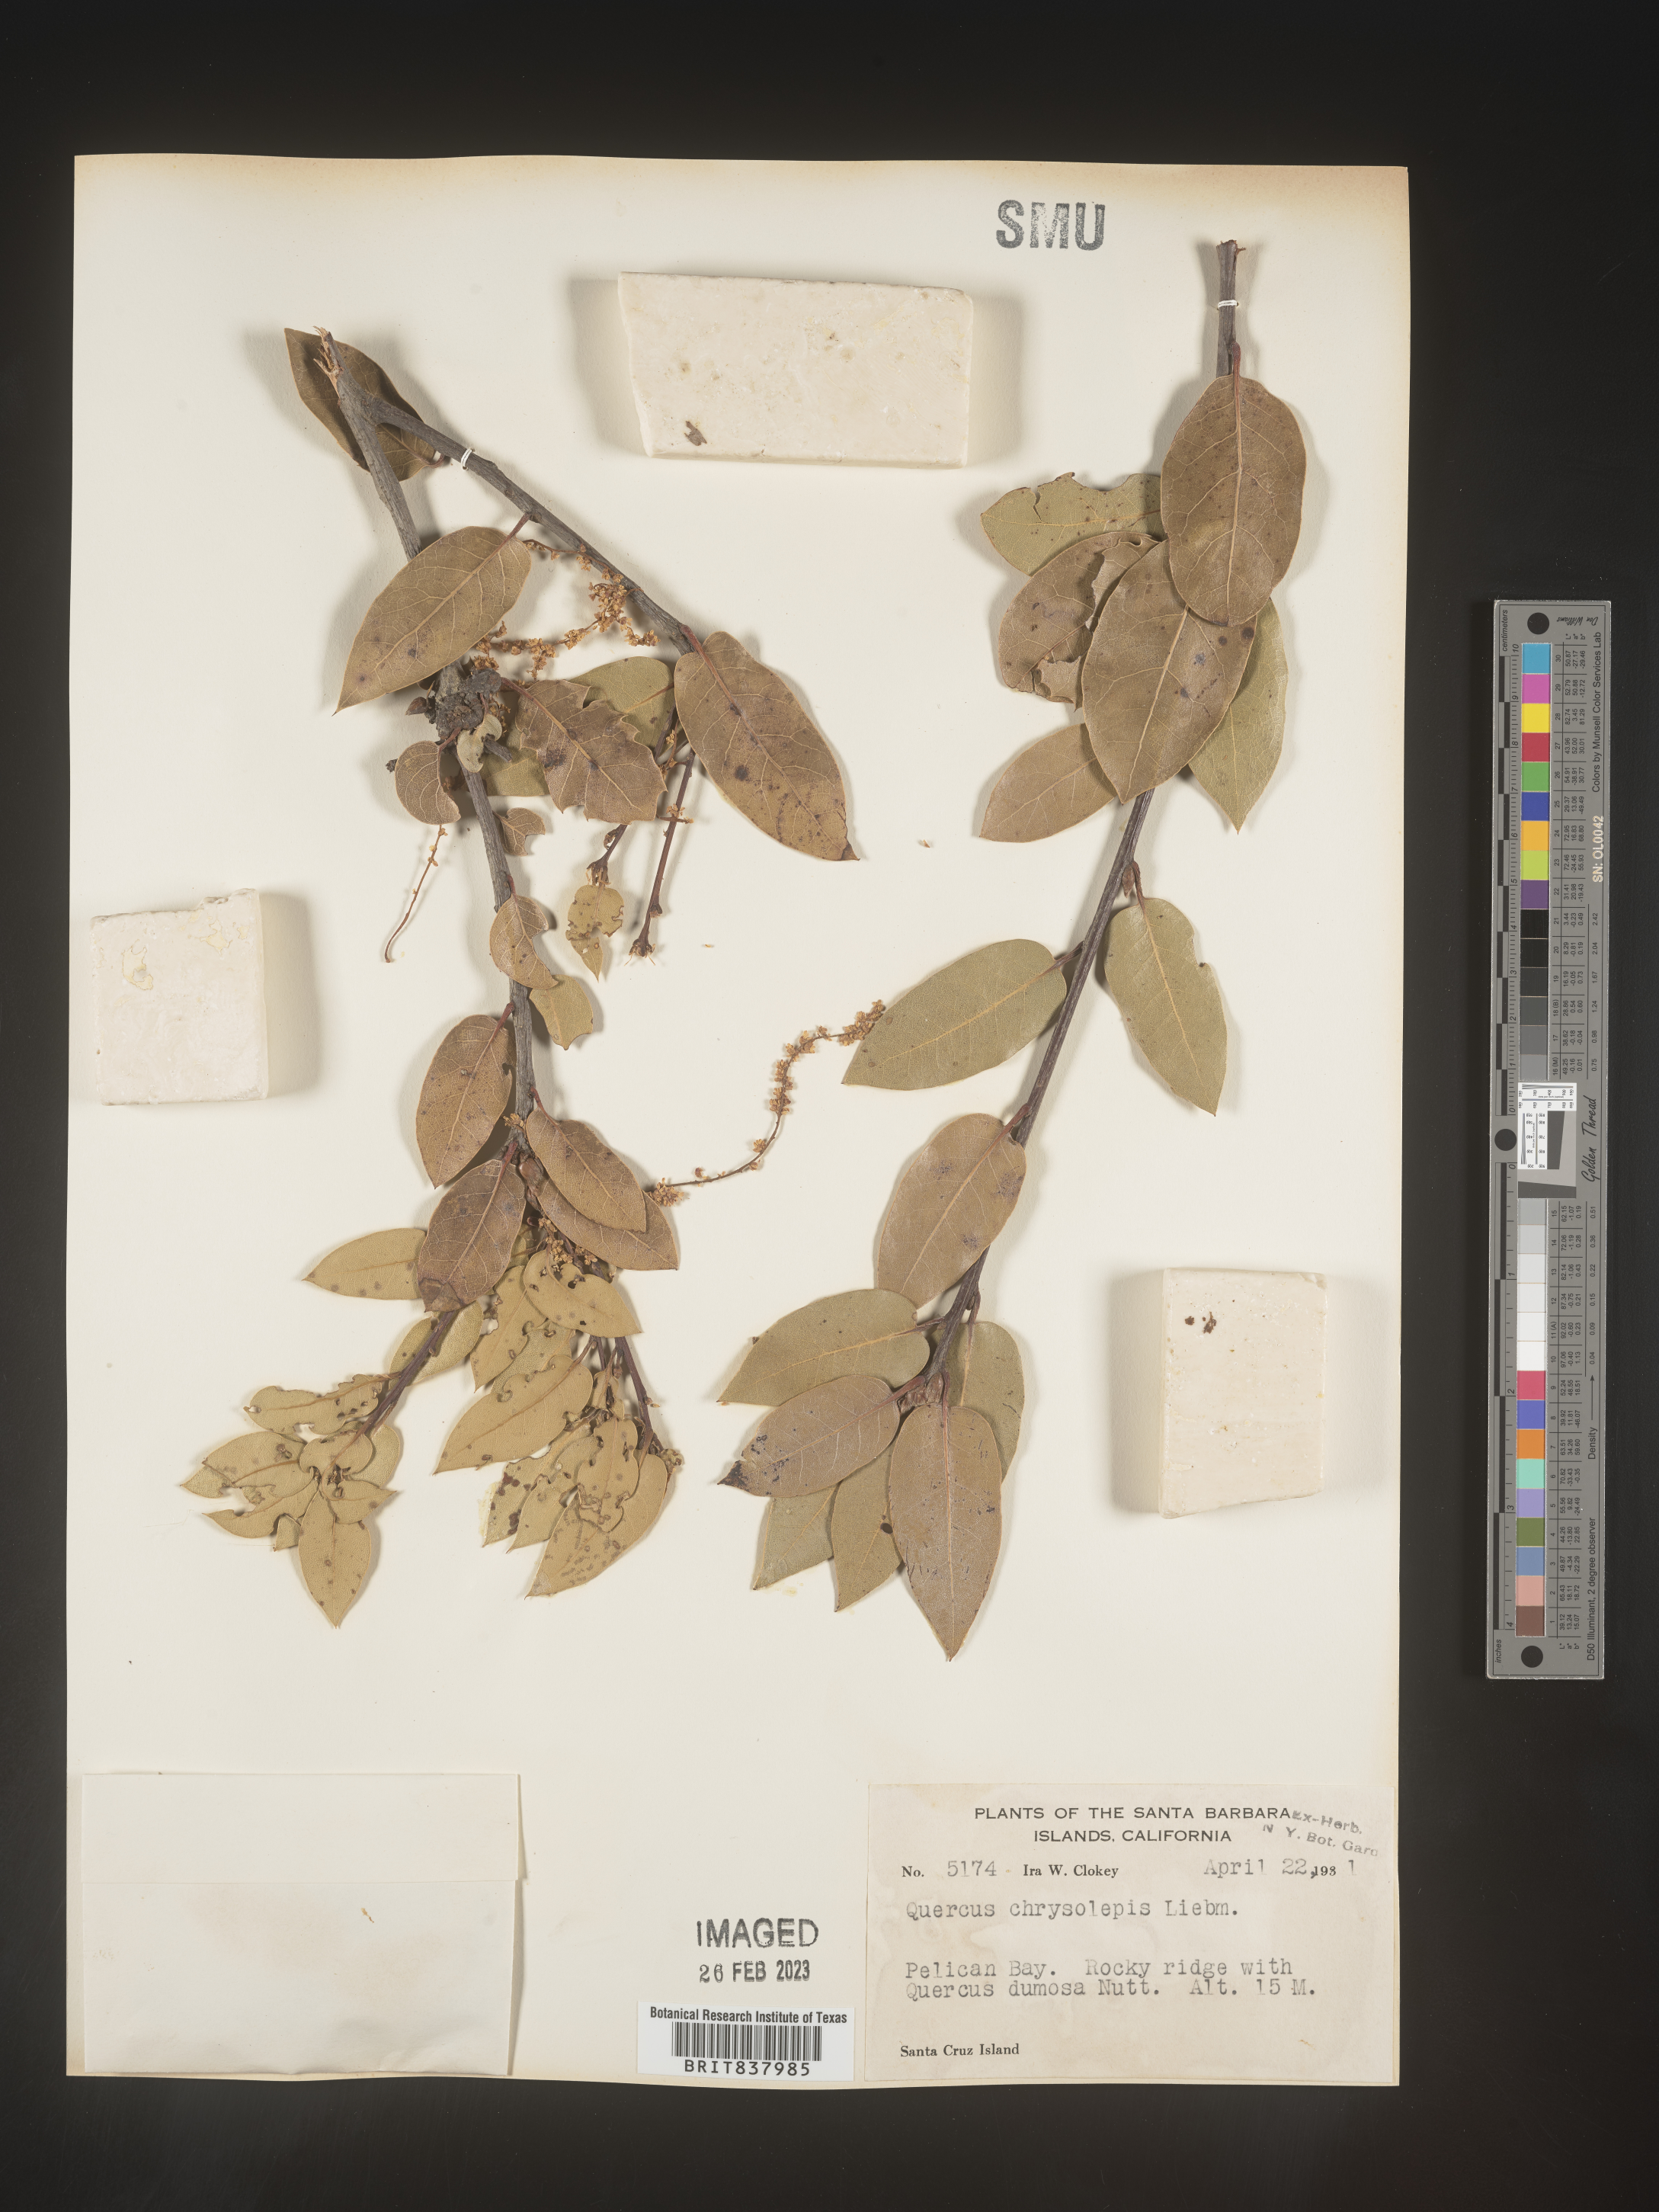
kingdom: Plantae
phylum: Tracheophyta
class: Magnoliopsida
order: Fagales
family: Fagaceae
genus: Quercus
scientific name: Quercus chrysolepis
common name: Canyon live oak
